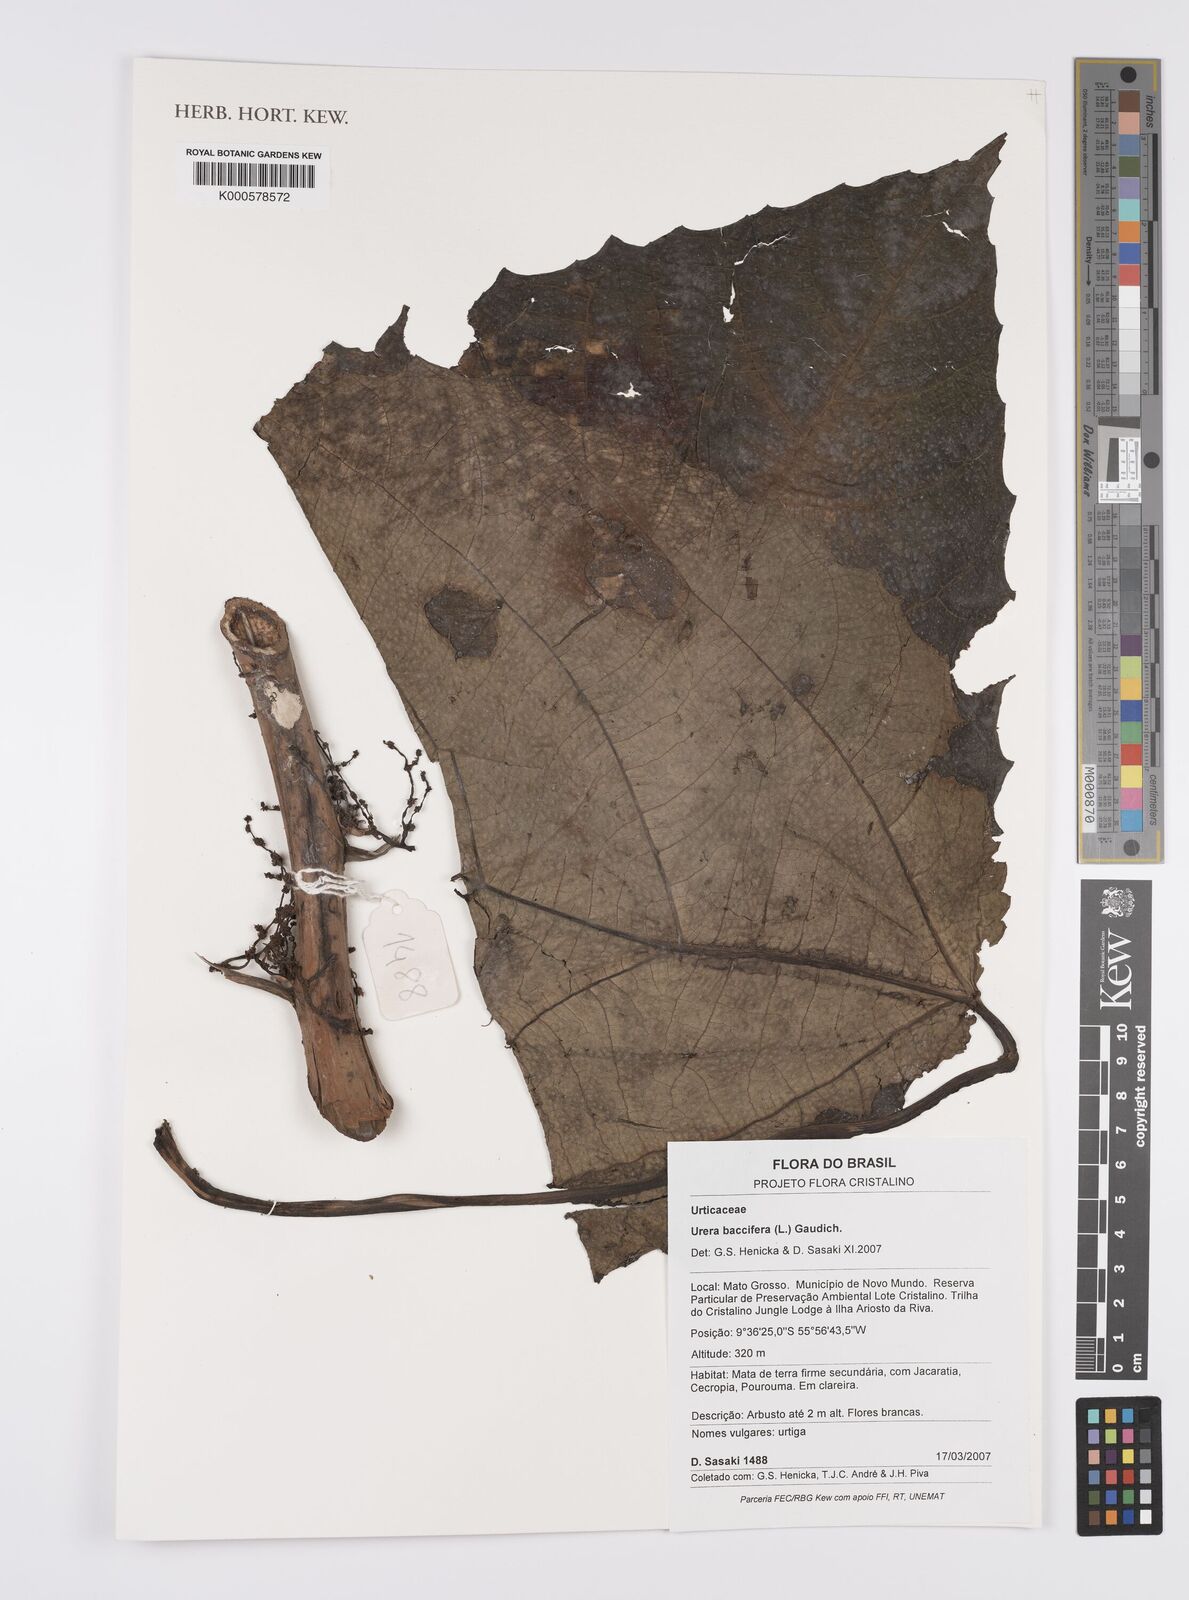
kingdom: Plantae
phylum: Tracheophyta
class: Magnoliopsida
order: Rosales
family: Urticaceae
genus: Urera
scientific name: Urera baccifera
